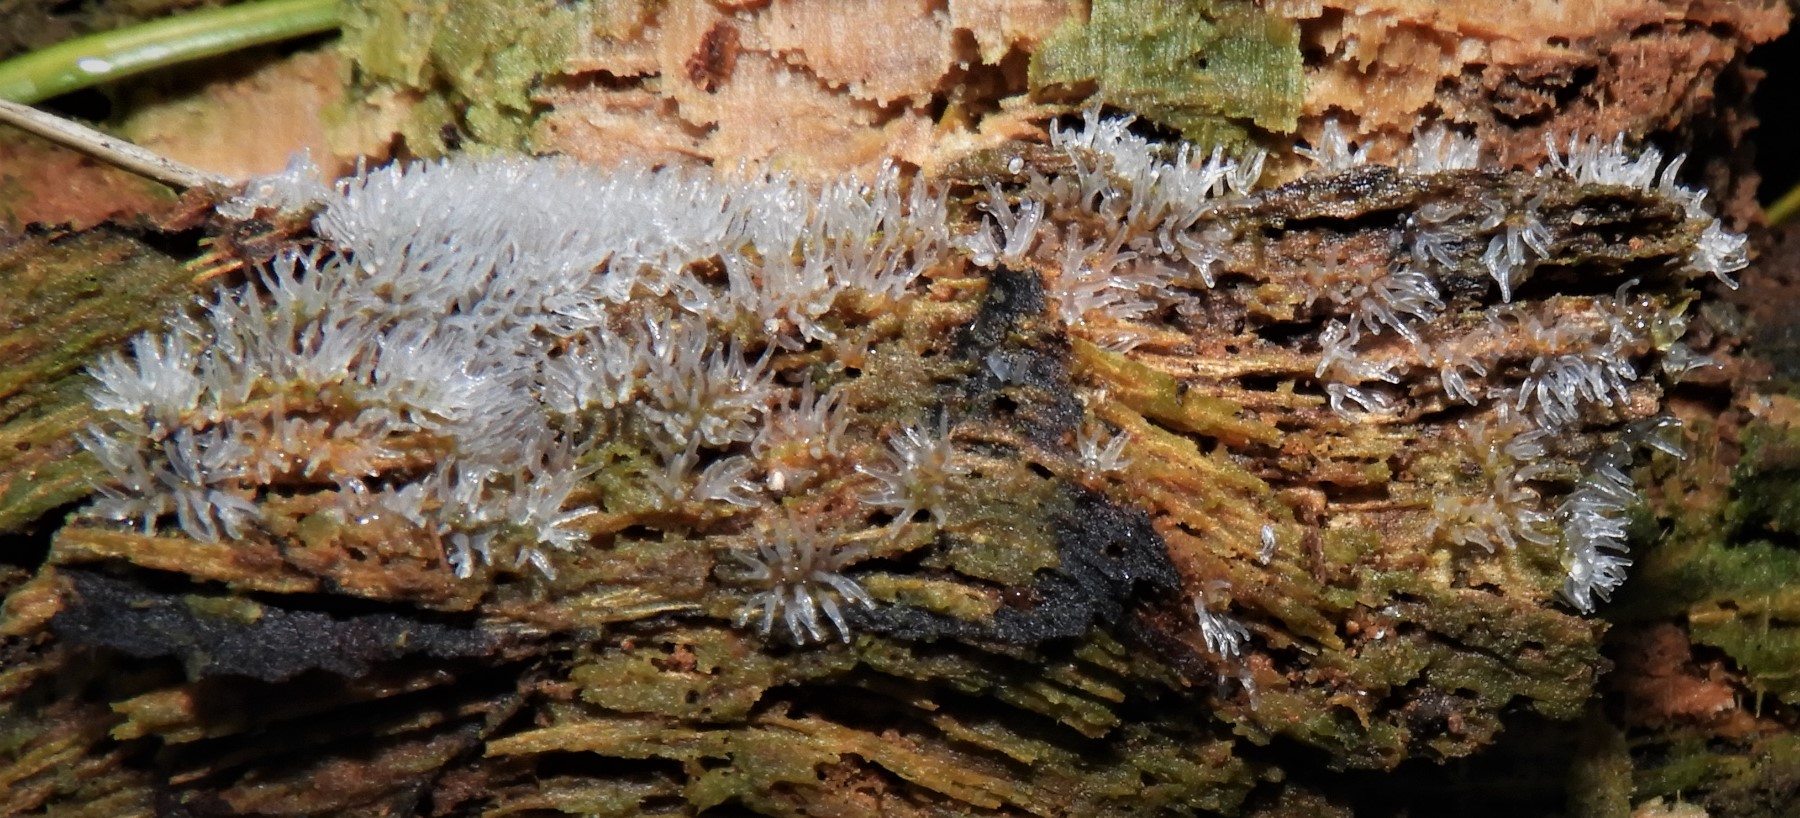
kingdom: Protozoa
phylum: Amoebozoa
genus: Ceratiomyxa
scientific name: Ceratiomyxa
